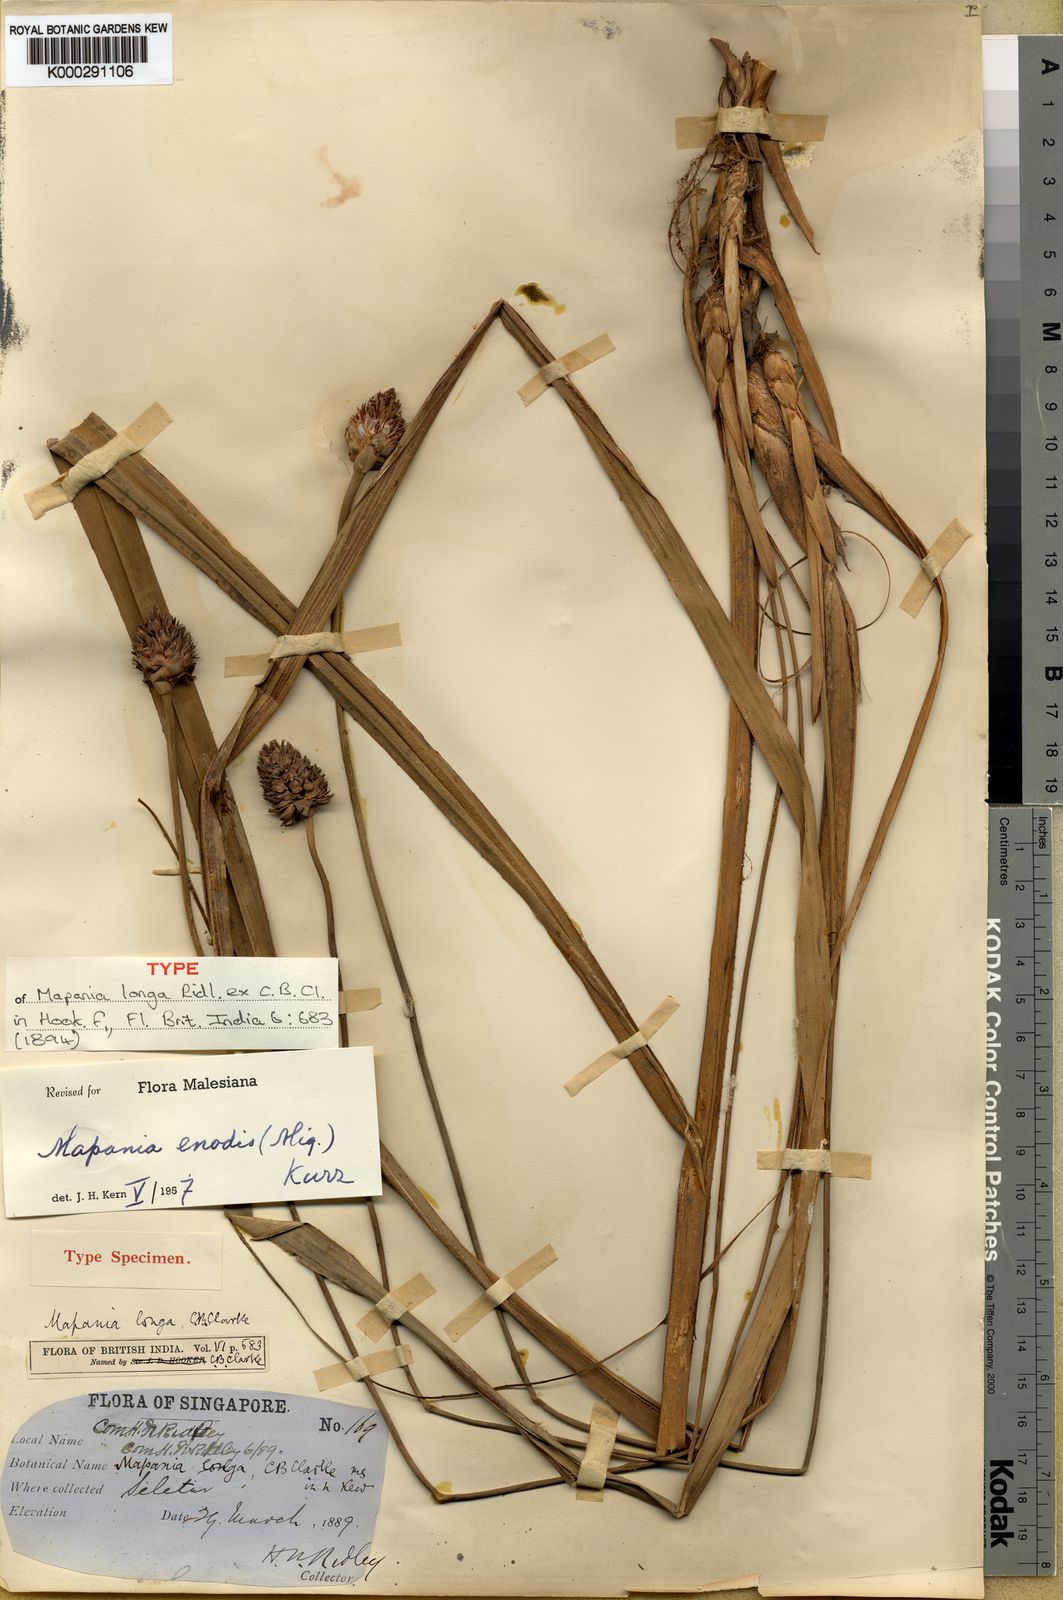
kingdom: Plantae
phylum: Tracheophyta
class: Liliopsida
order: Poales
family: Cyperaceae
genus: Mapania
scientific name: Mapania enodis
